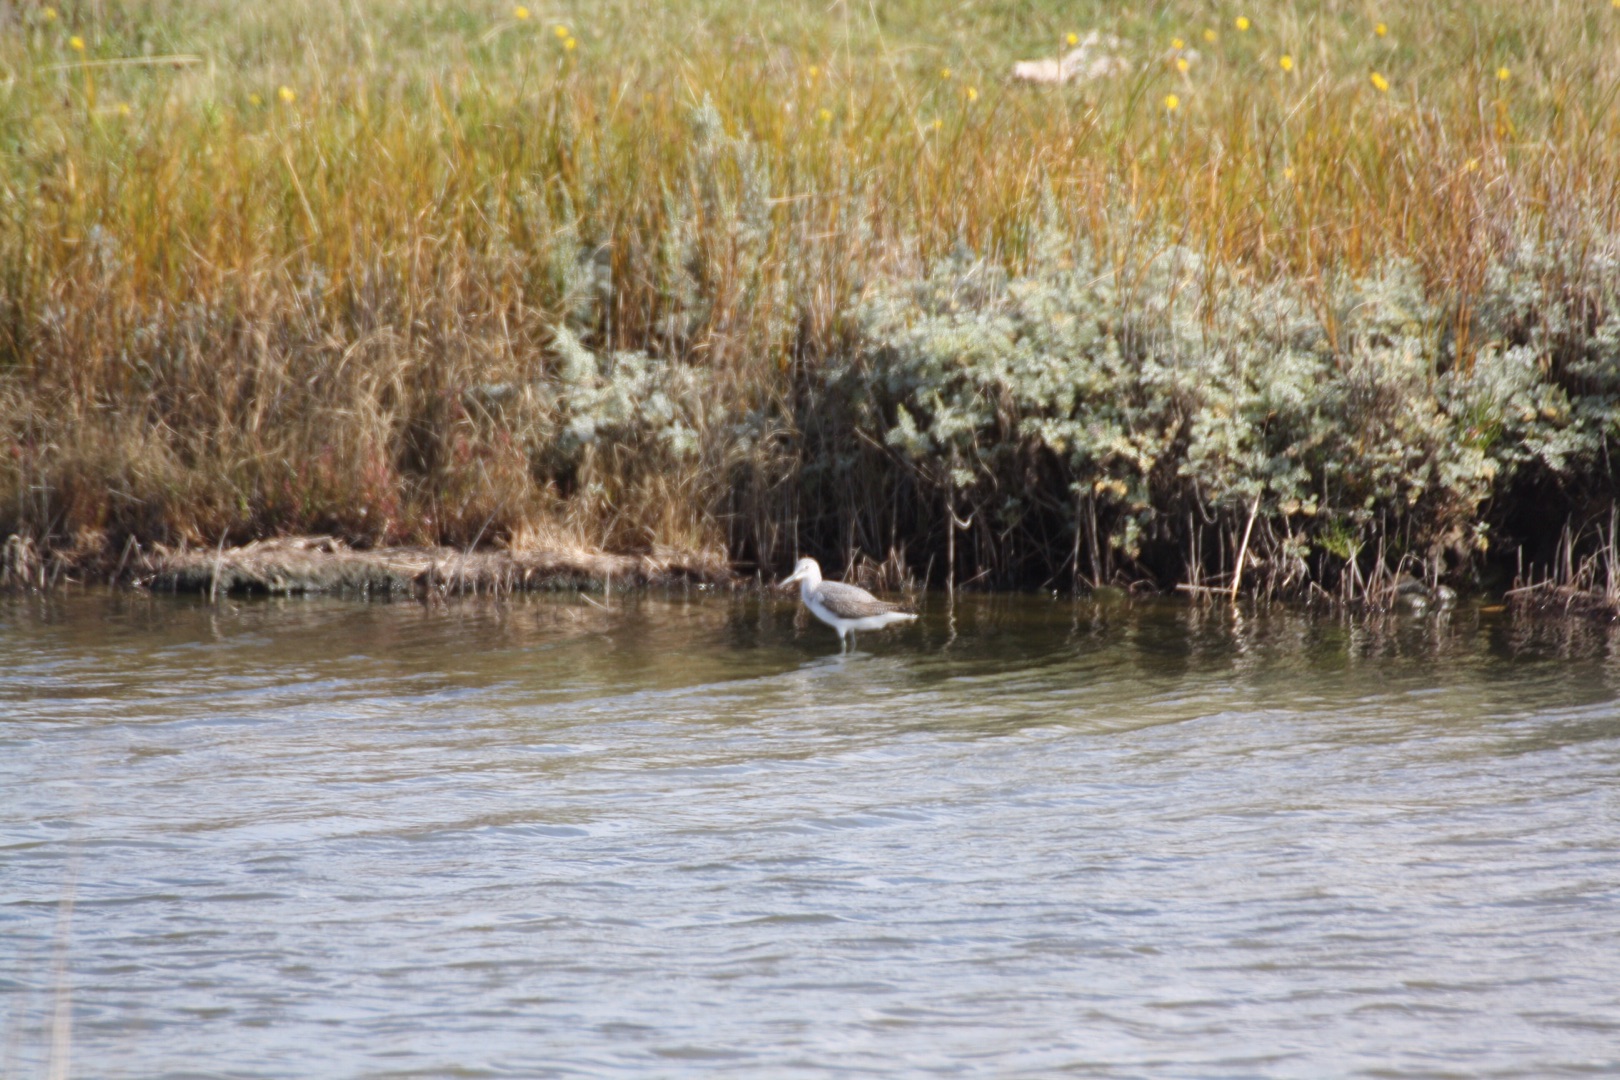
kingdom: Animalia
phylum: Chordata
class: Aves
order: Charadriiformes
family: Scolopacidae
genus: Tringa
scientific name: Tringa nebularia
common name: Hvidklire
